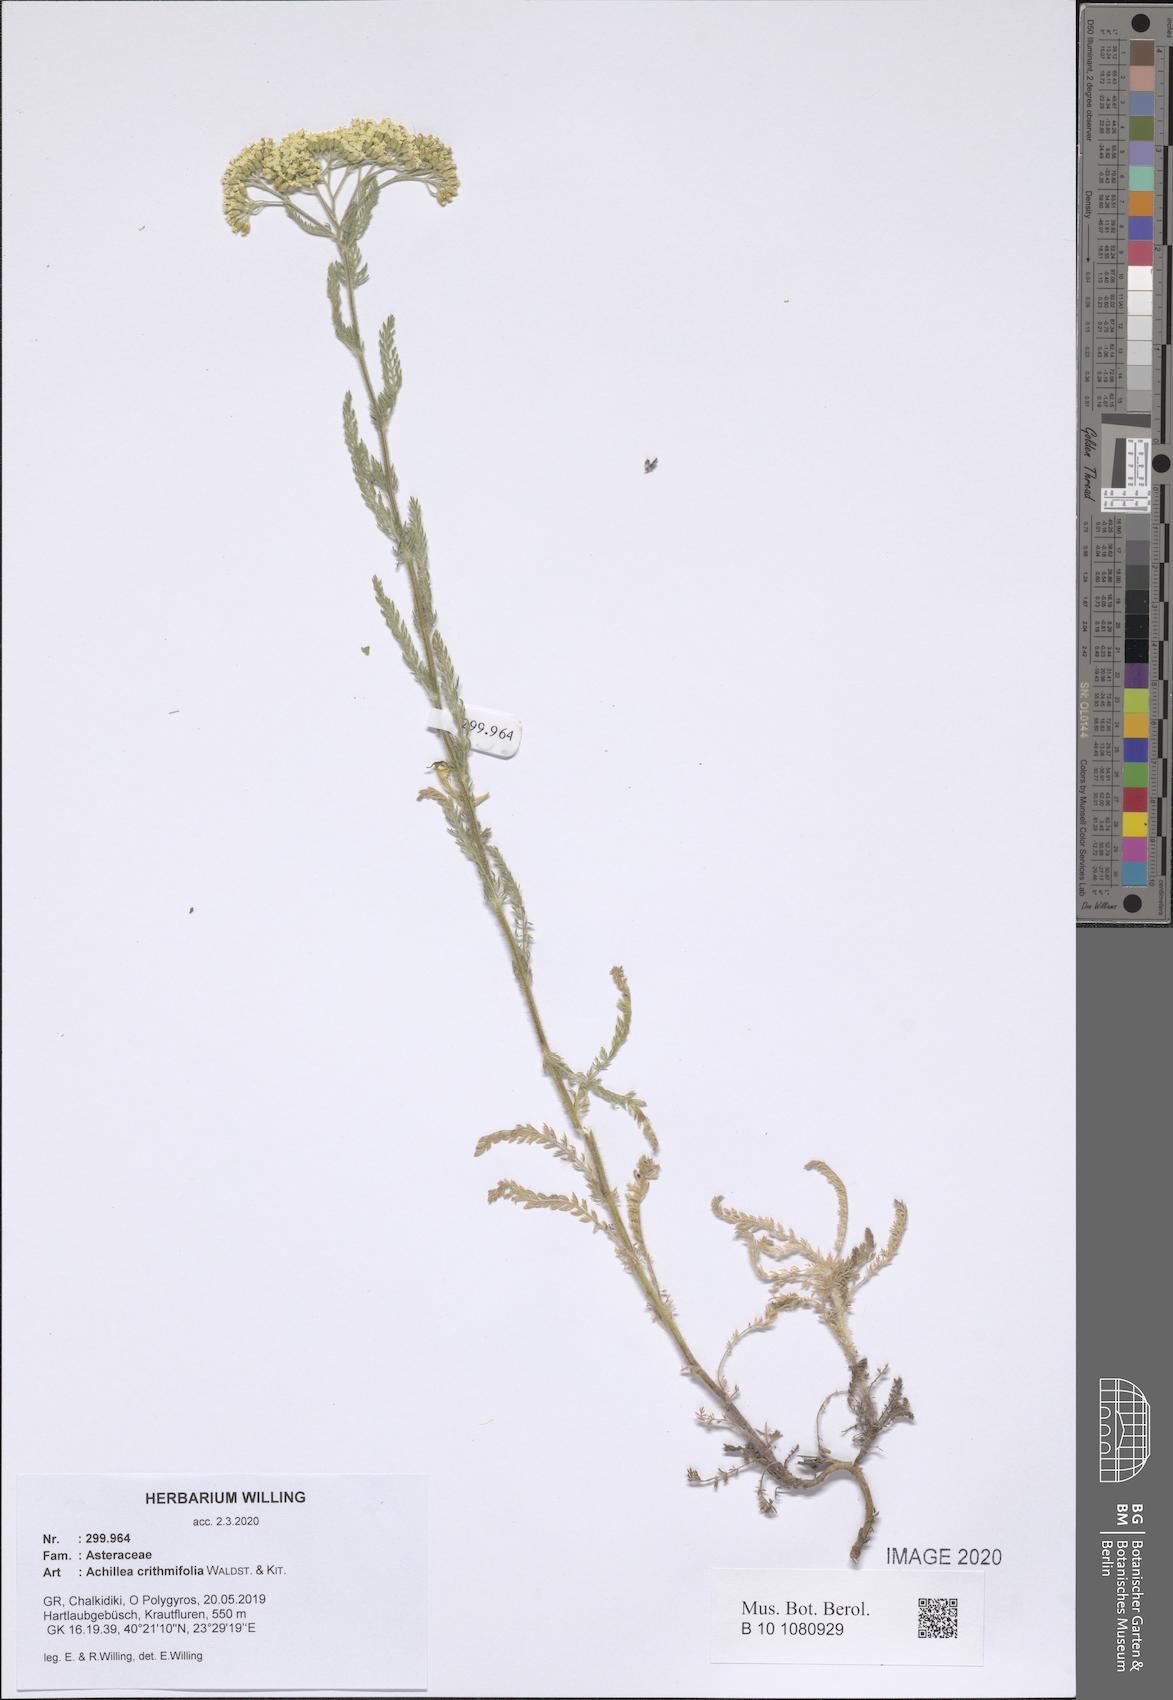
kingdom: Plantae
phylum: Tracheophyta
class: Magnoliopsida
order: Asterales
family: Asteraceae
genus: Achillea
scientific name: Achillea crithmifolia
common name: Yarrow
